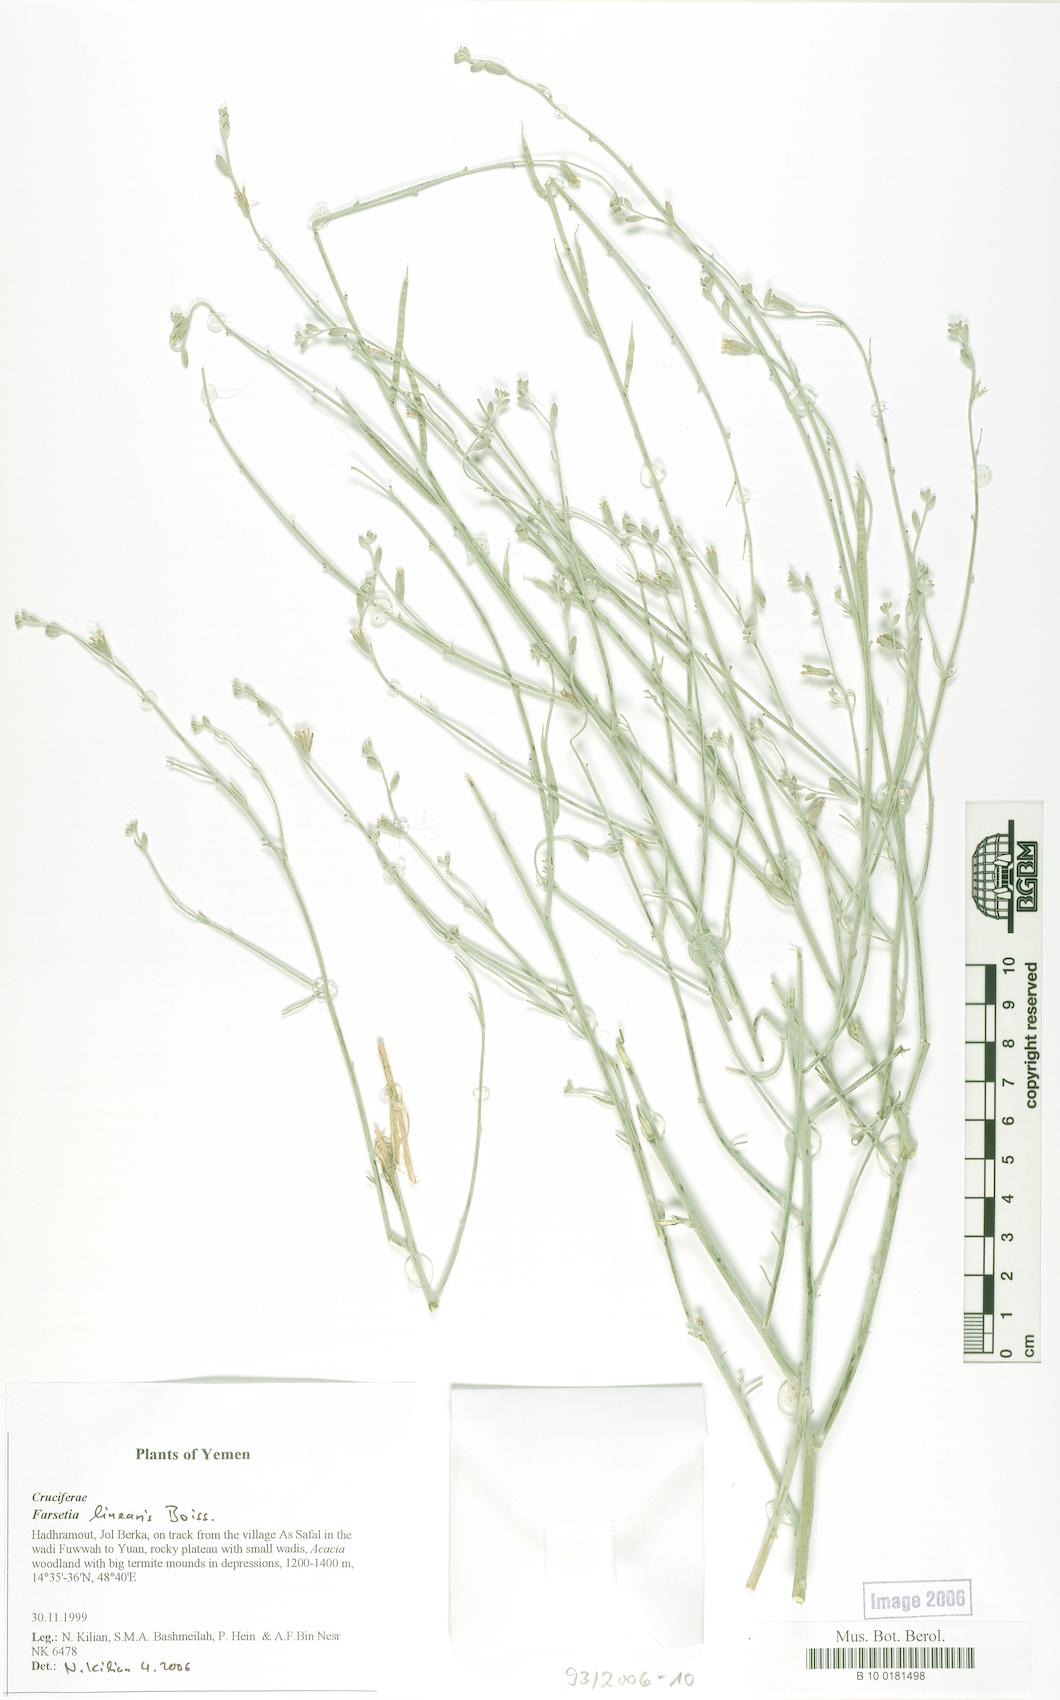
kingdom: Plantae
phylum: Tracheophyta
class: Magnoliopsida
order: Brassicales
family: Brassicaceae
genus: Farsetia
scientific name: Farsetia linearis
